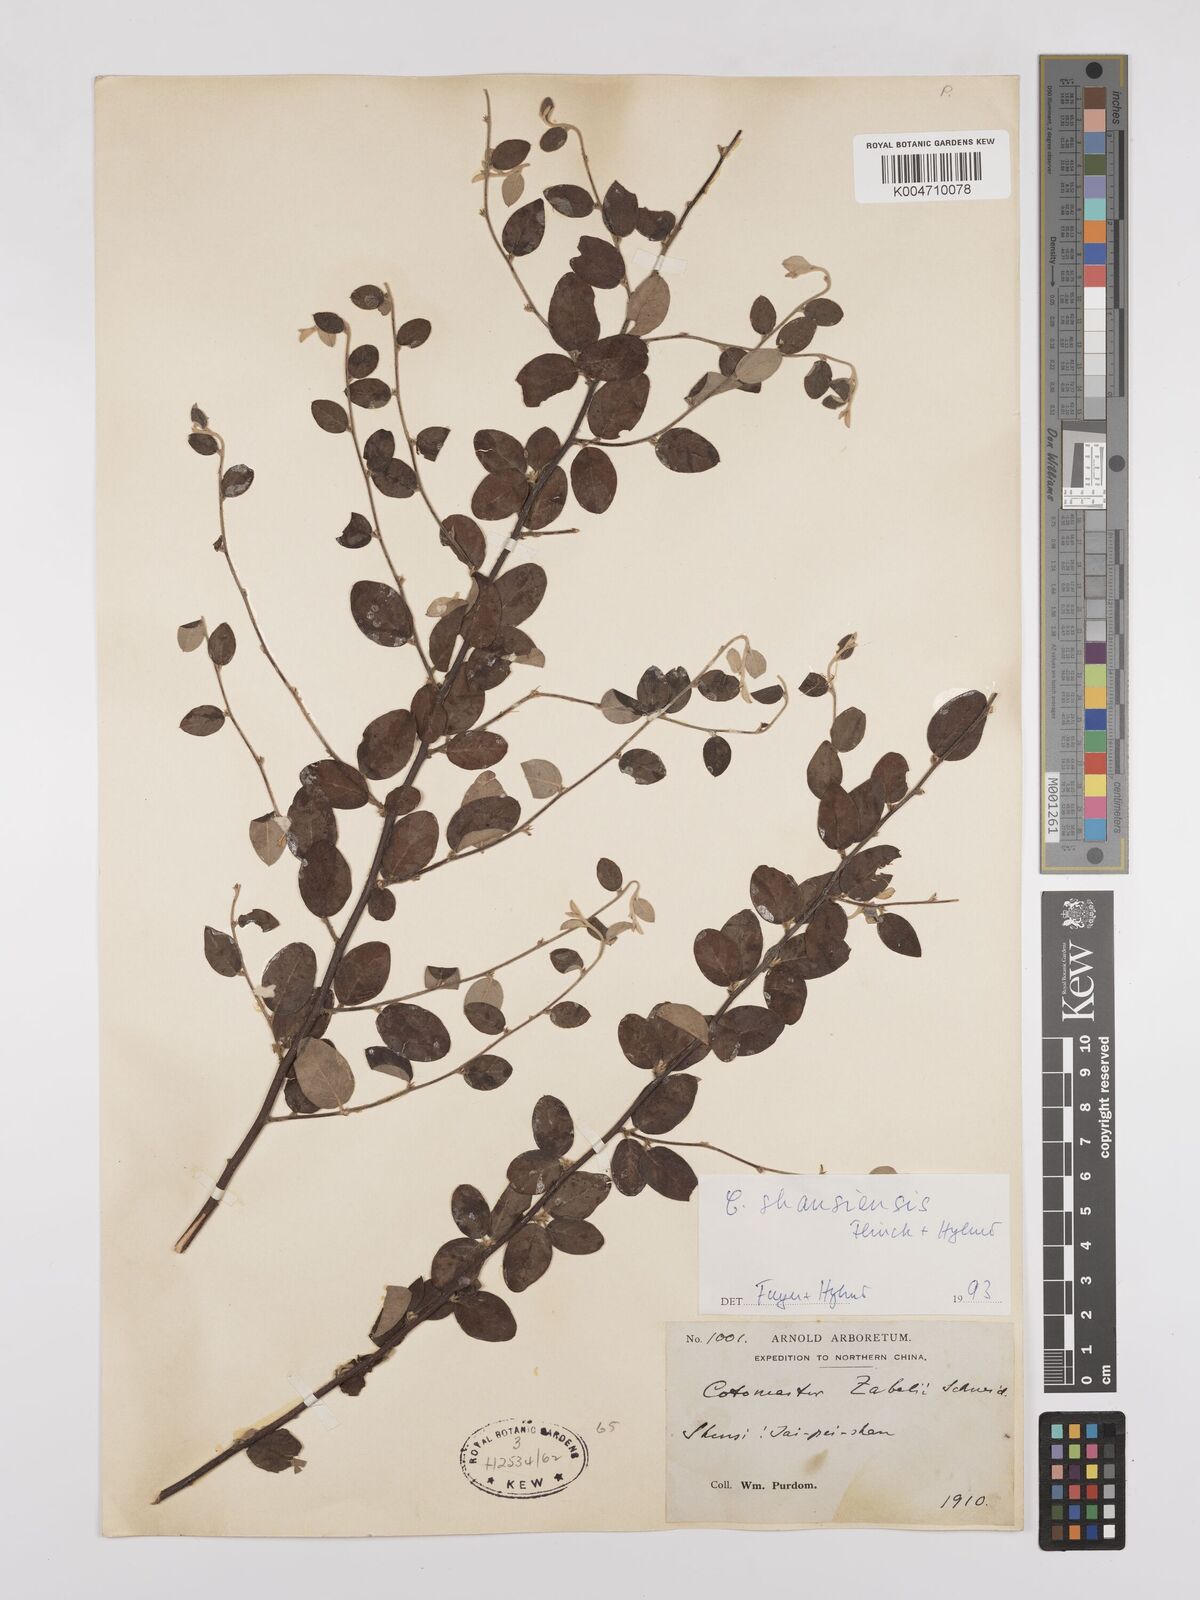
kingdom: Plantae
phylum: Tracheophyta
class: Magnoliopsida
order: Rosales
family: Rosaceae
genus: Cotoneaster
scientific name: Cotoneaster zabelii
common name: Cherryred cotoneaster
